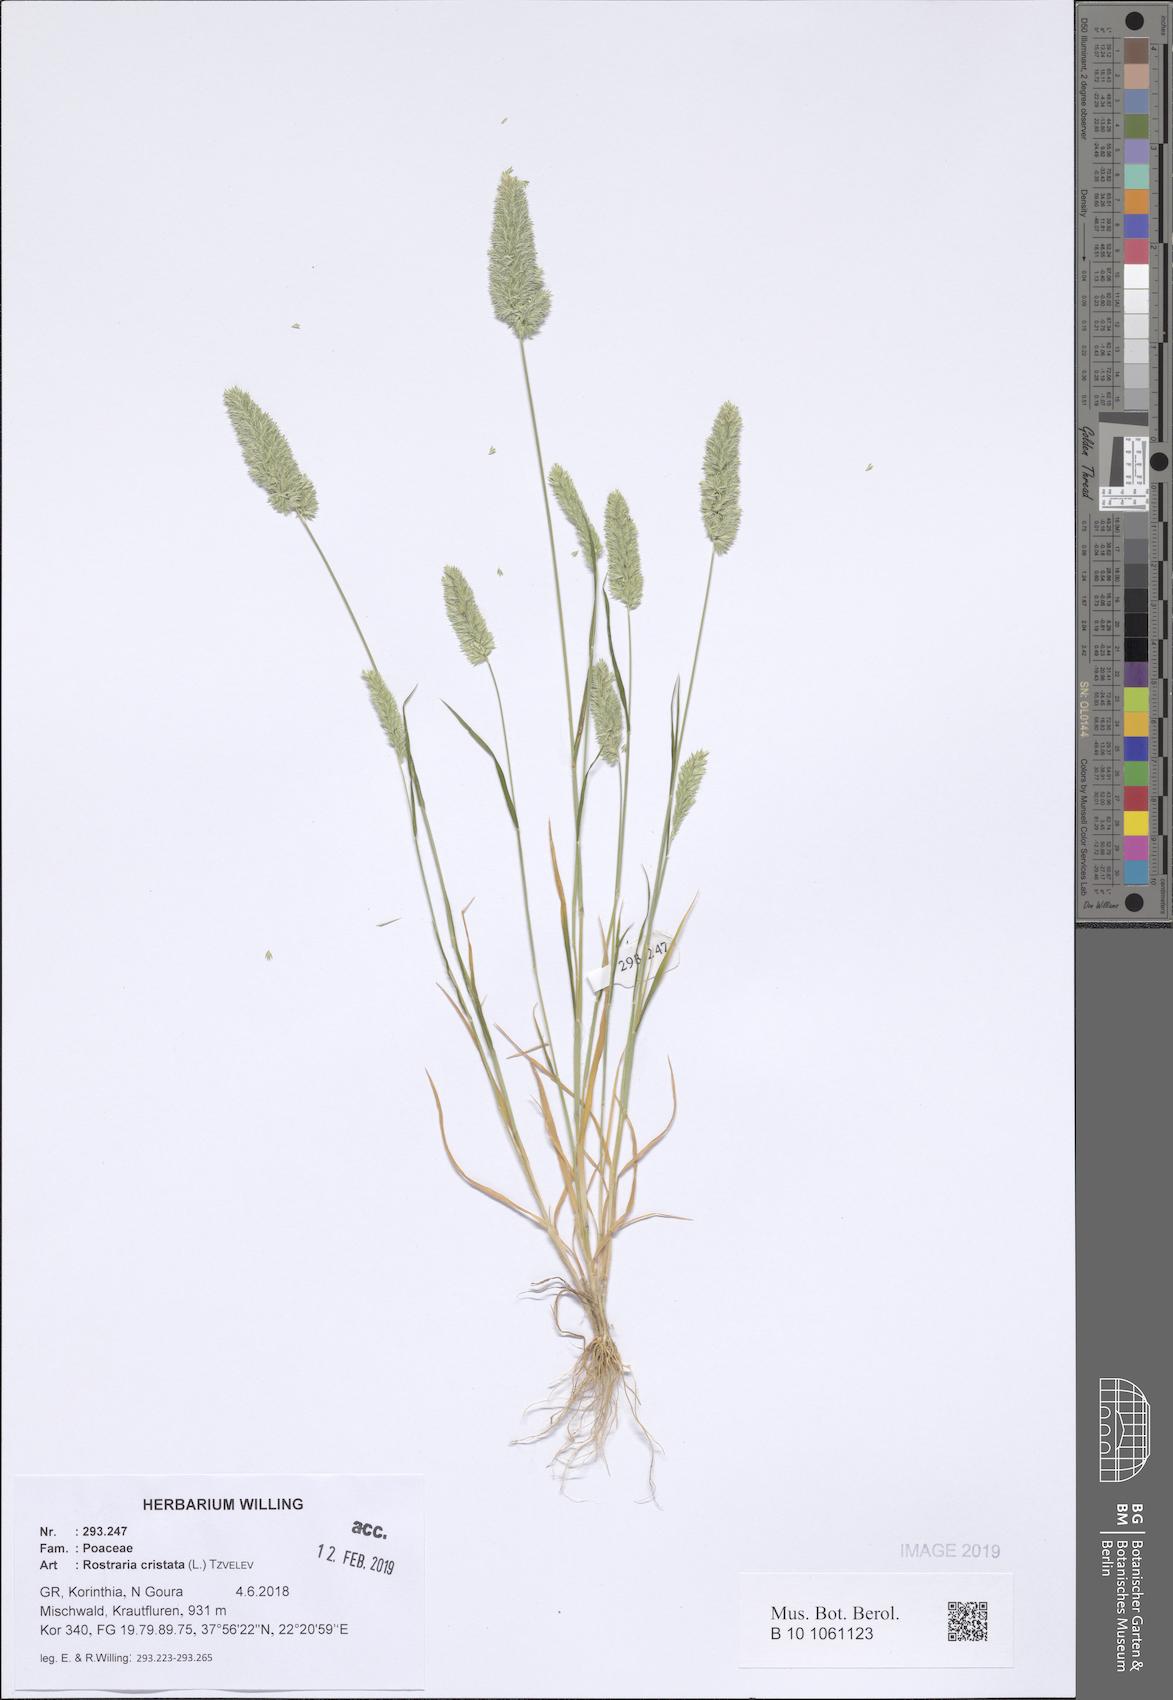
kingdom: Plantae
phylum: Tracheophyta
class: Liliopsida
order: Poales
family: Poaceae
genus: Rostraria
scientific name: Rostraria cristata
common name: Mediterranean hair-grass
